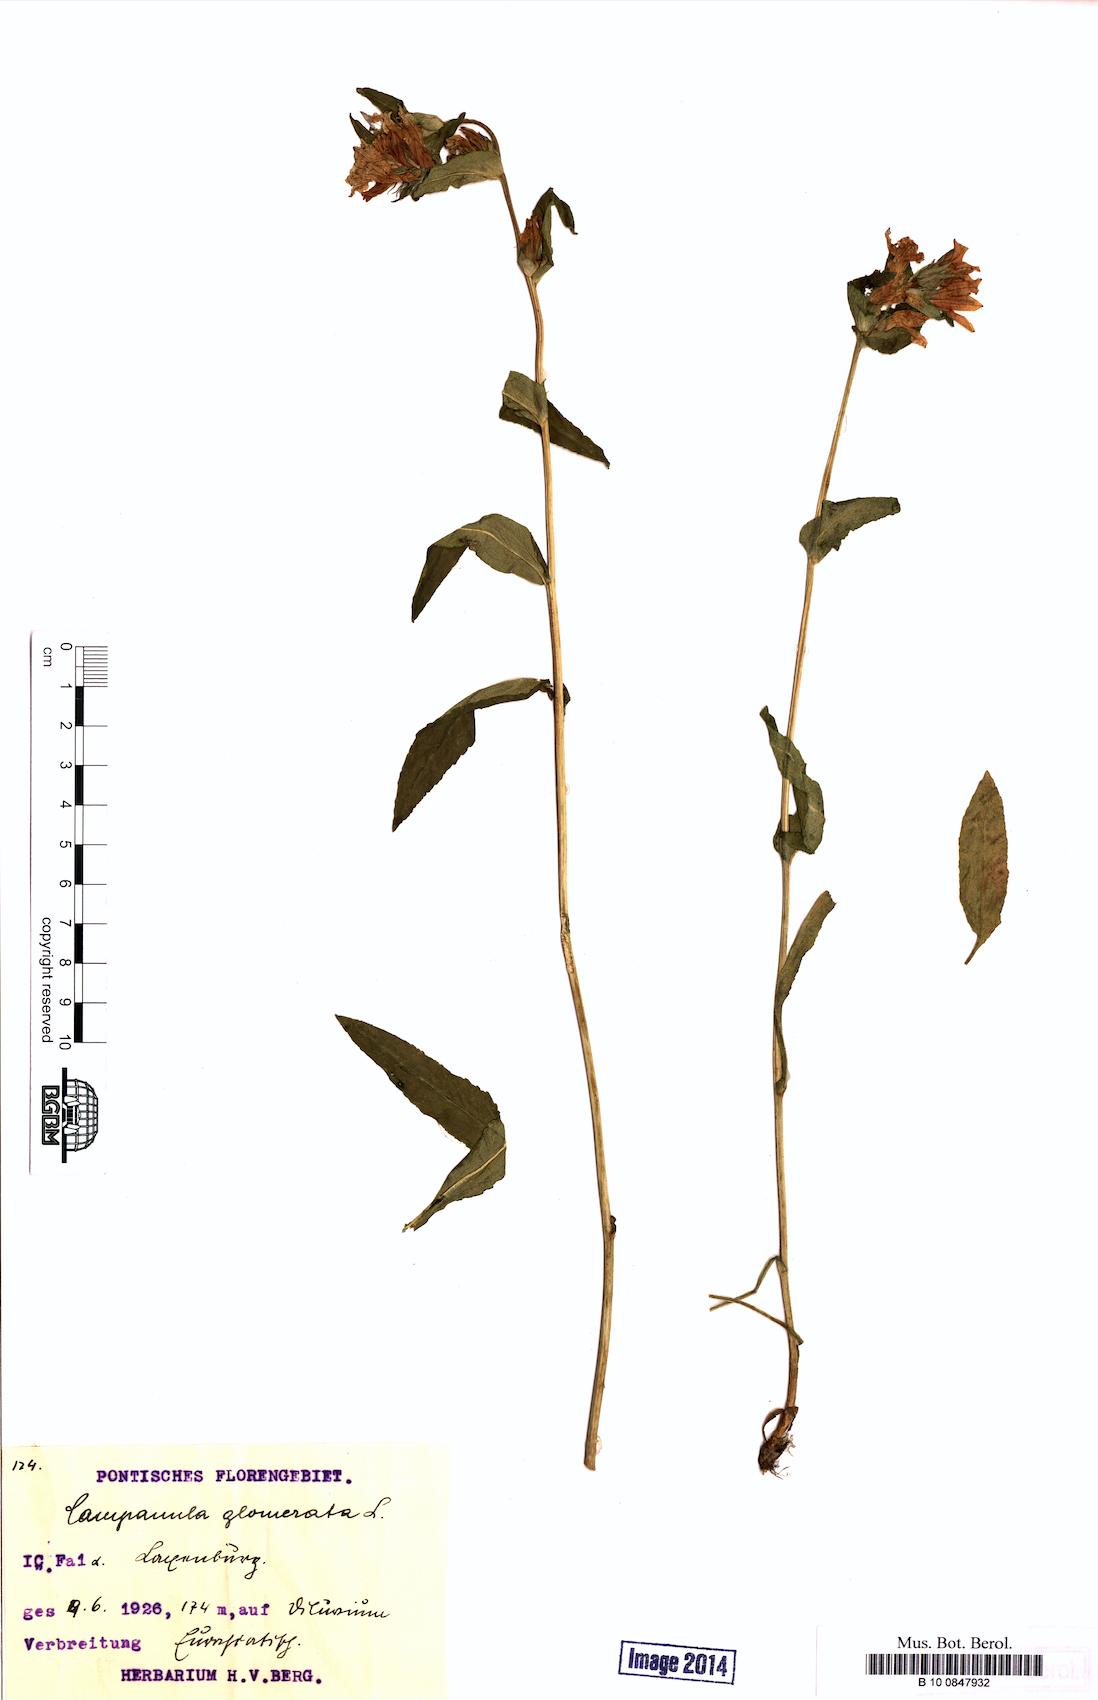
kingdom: Plantae
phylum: Tracheophyta
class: Magnoliopsida
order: Asterales
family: Campanulaceae
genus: Campanula
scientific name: Campanula glomerata
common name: Clustered bellflower
